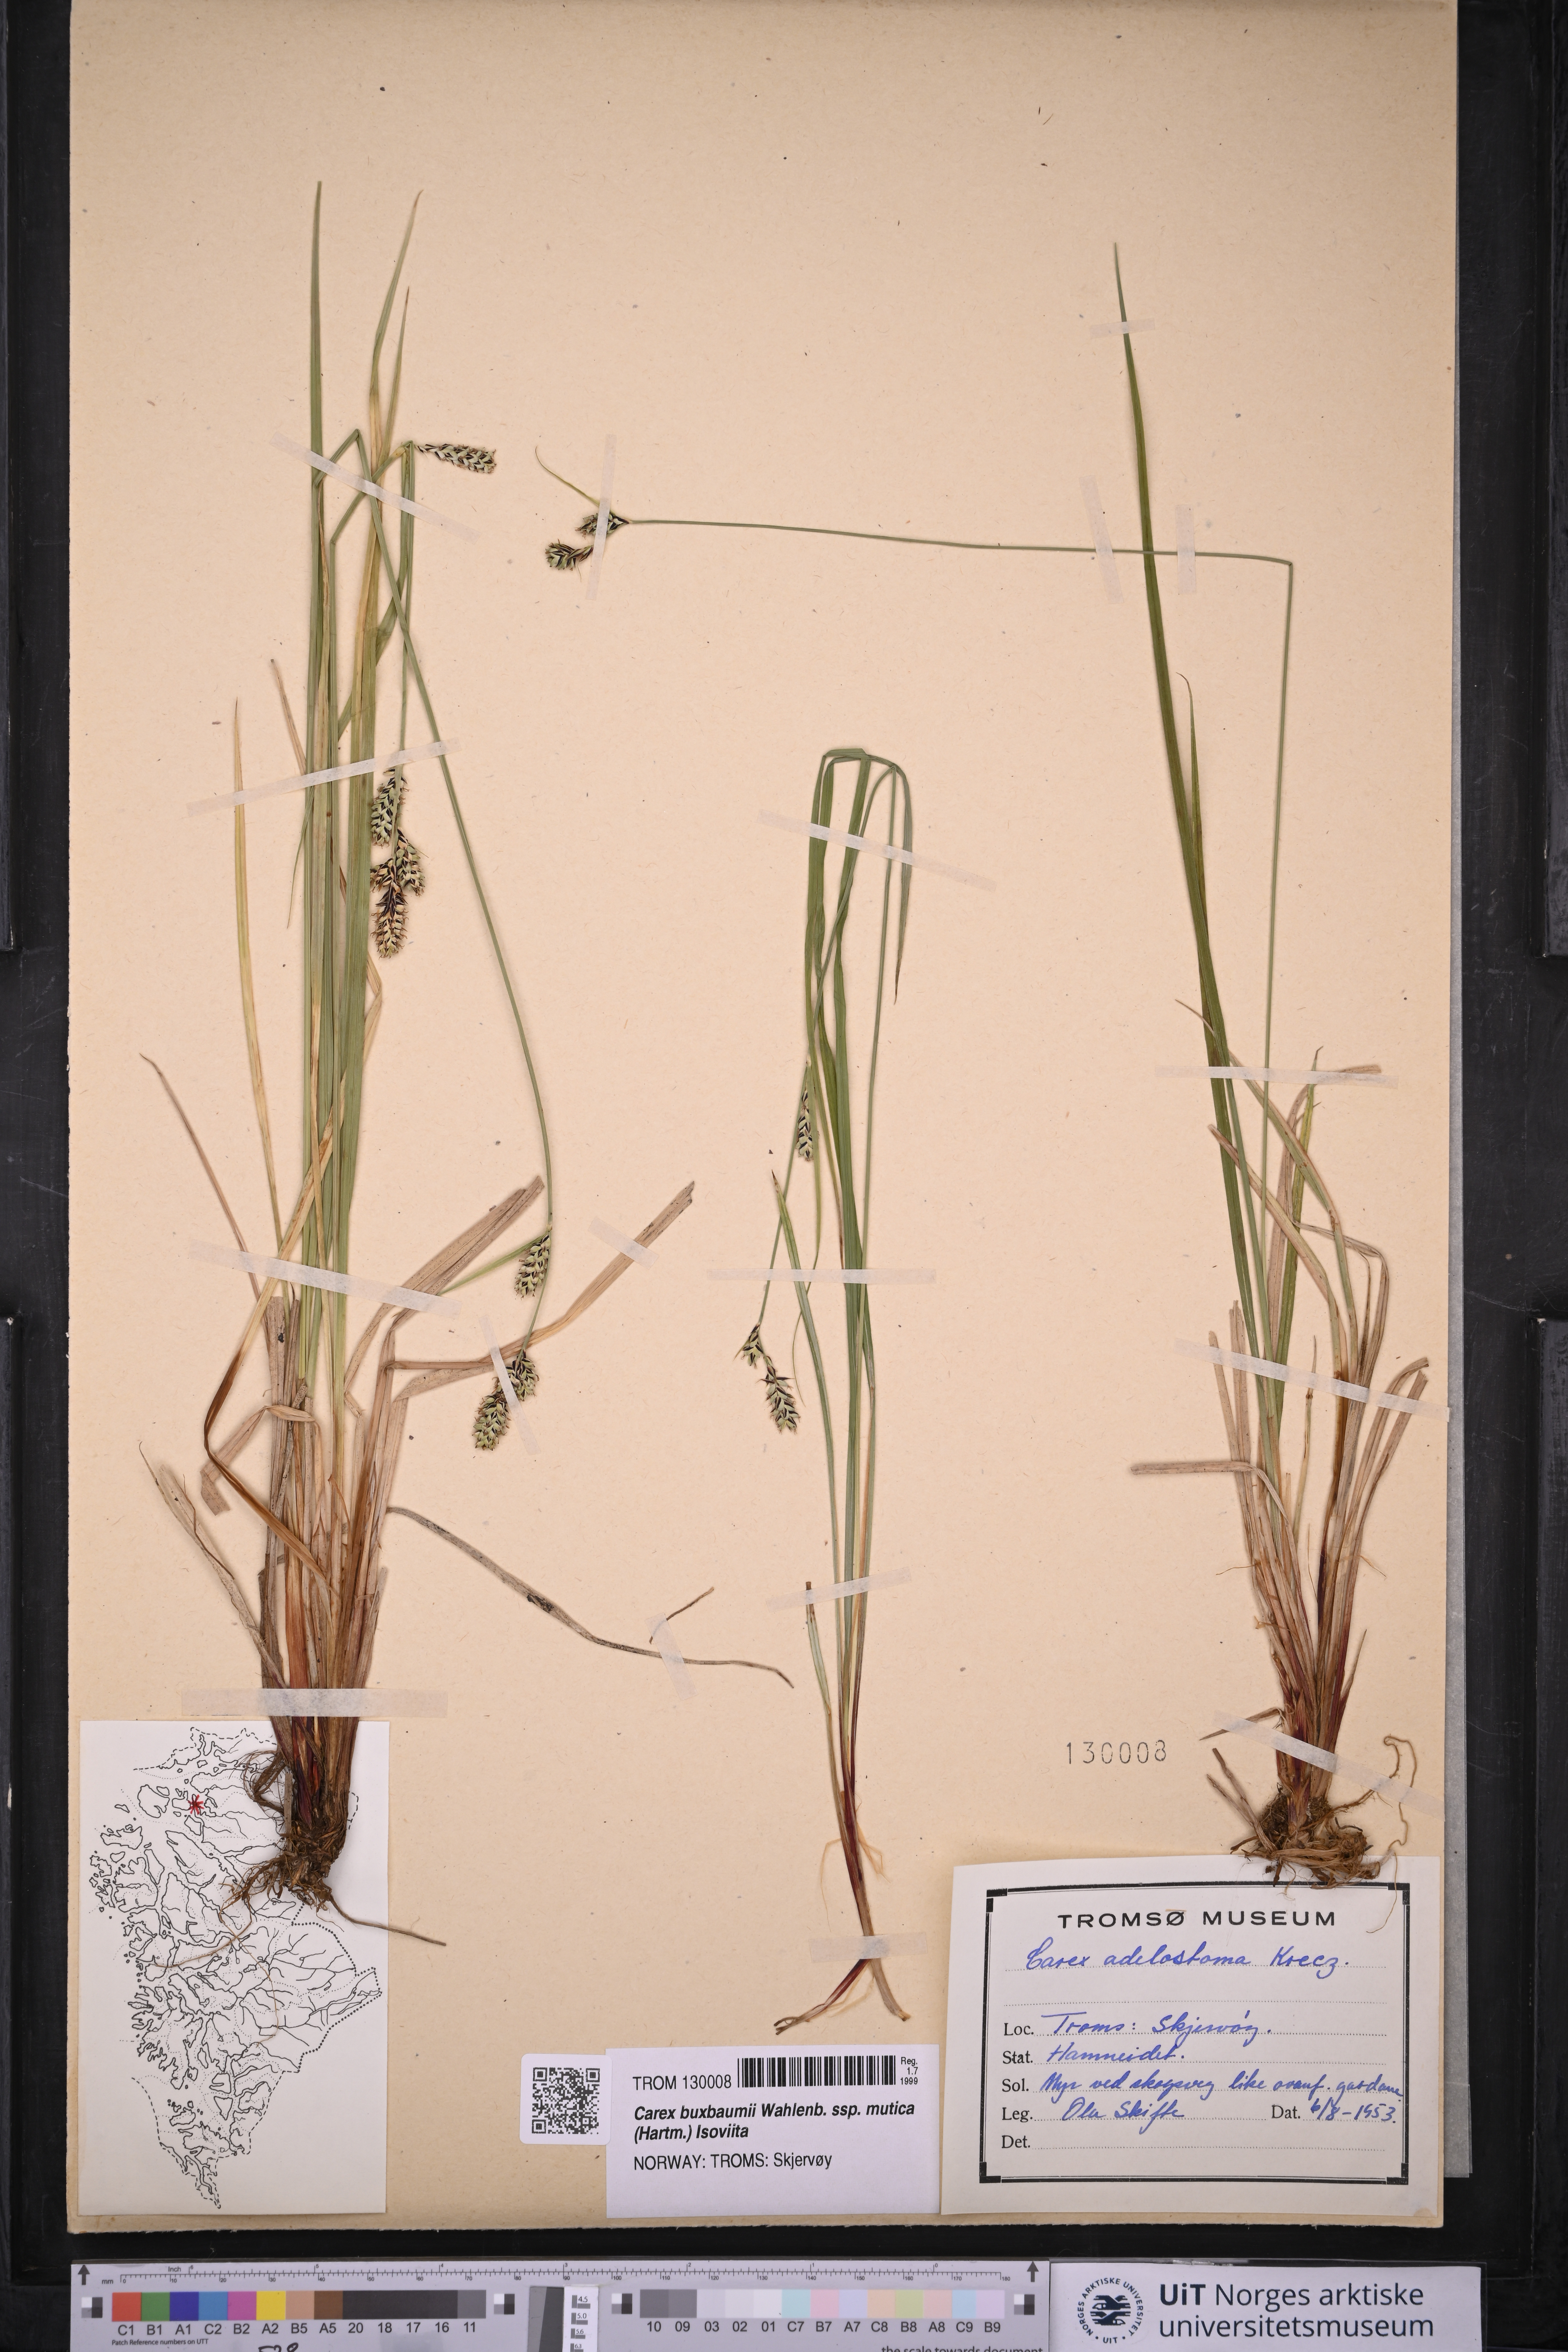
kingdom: Plantae
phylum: Tracheophyta
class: Liliopsida
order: Poales
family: Cyperaceae
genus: Carex
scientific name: Carex adelostoma
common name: Circumpolar sedge
